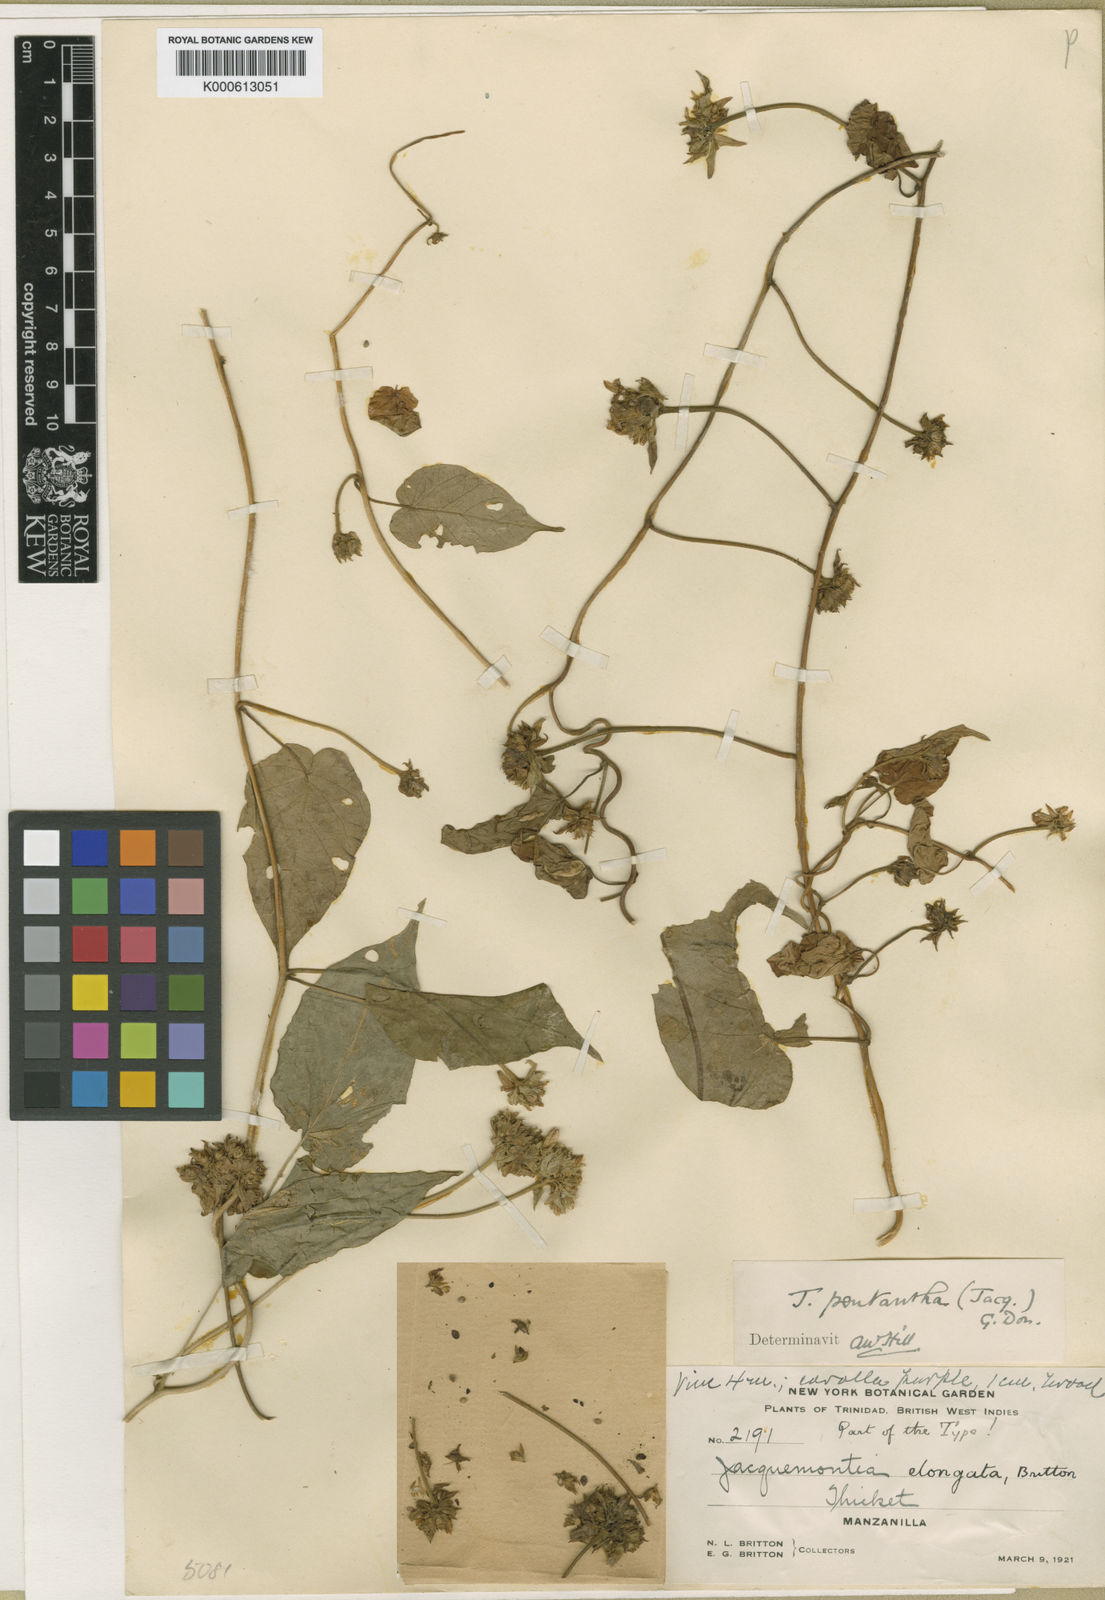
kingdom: Plantae
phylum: Tracheophyta
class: Magnoliopsida
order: Solanales
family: Convolvulaceae
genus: Jacquemontia
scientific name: Jacquemontia
